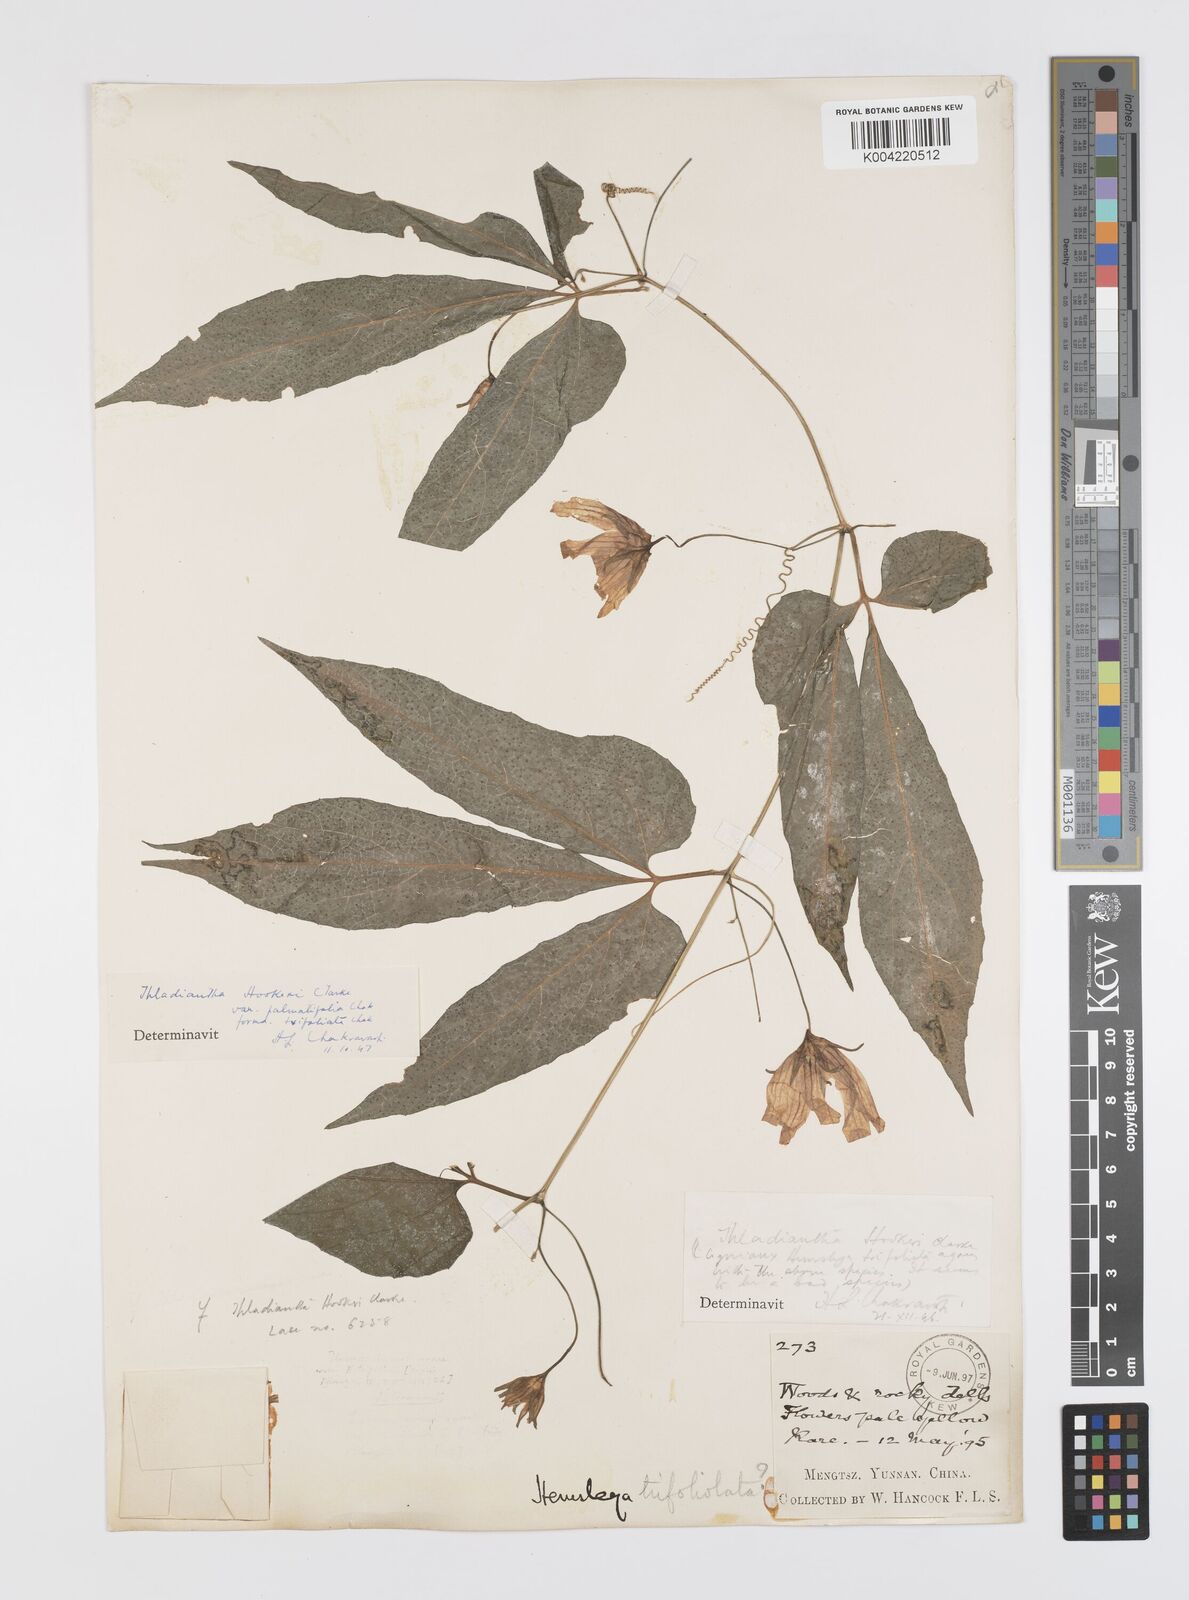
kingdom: Plantae
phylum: Tracheophyta
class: Magnoliopsida
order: Cucurbitales
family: Cucurbitaceae
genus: Thladiantha
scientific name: Thladiantha hookeri
